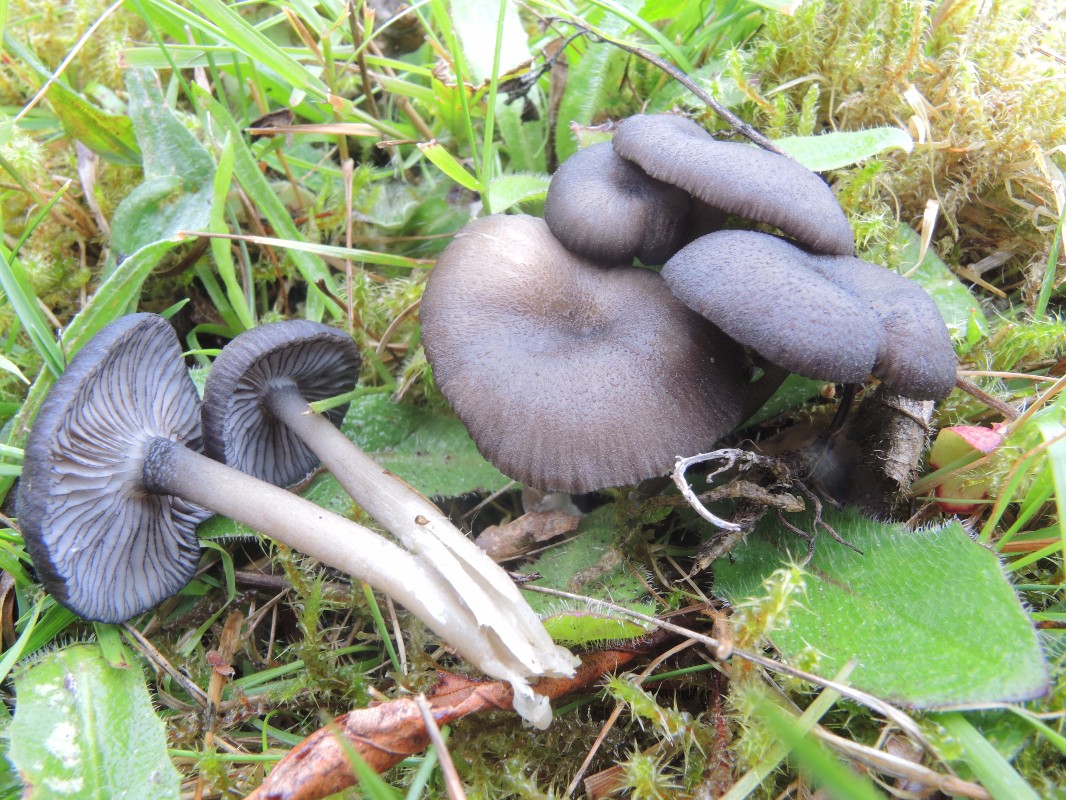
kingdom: Fungi
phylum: Basidiomycota
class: Agaricomycetes
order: Agaricales
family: Entolomataceae
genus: Entoloma
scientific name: Entoloma
